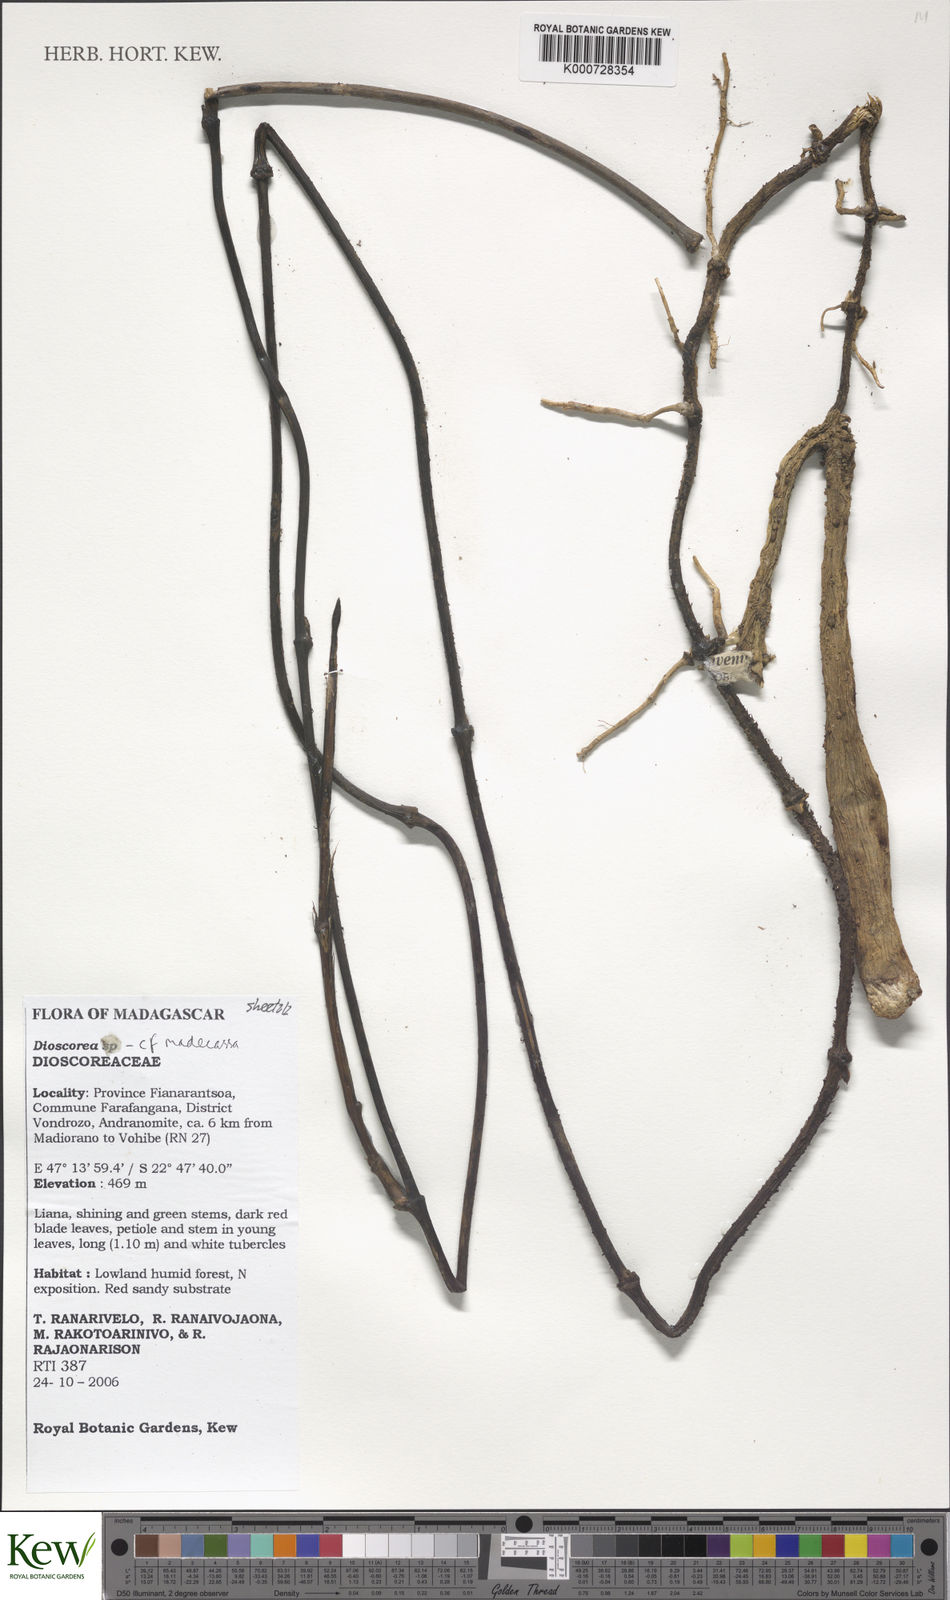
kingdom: Plantae
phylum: Tracheophyta
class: Liliopsida
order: Dioscoreales
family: Dioscoreaceae
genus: Dioscorea
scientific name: Dioscorea madecassa
